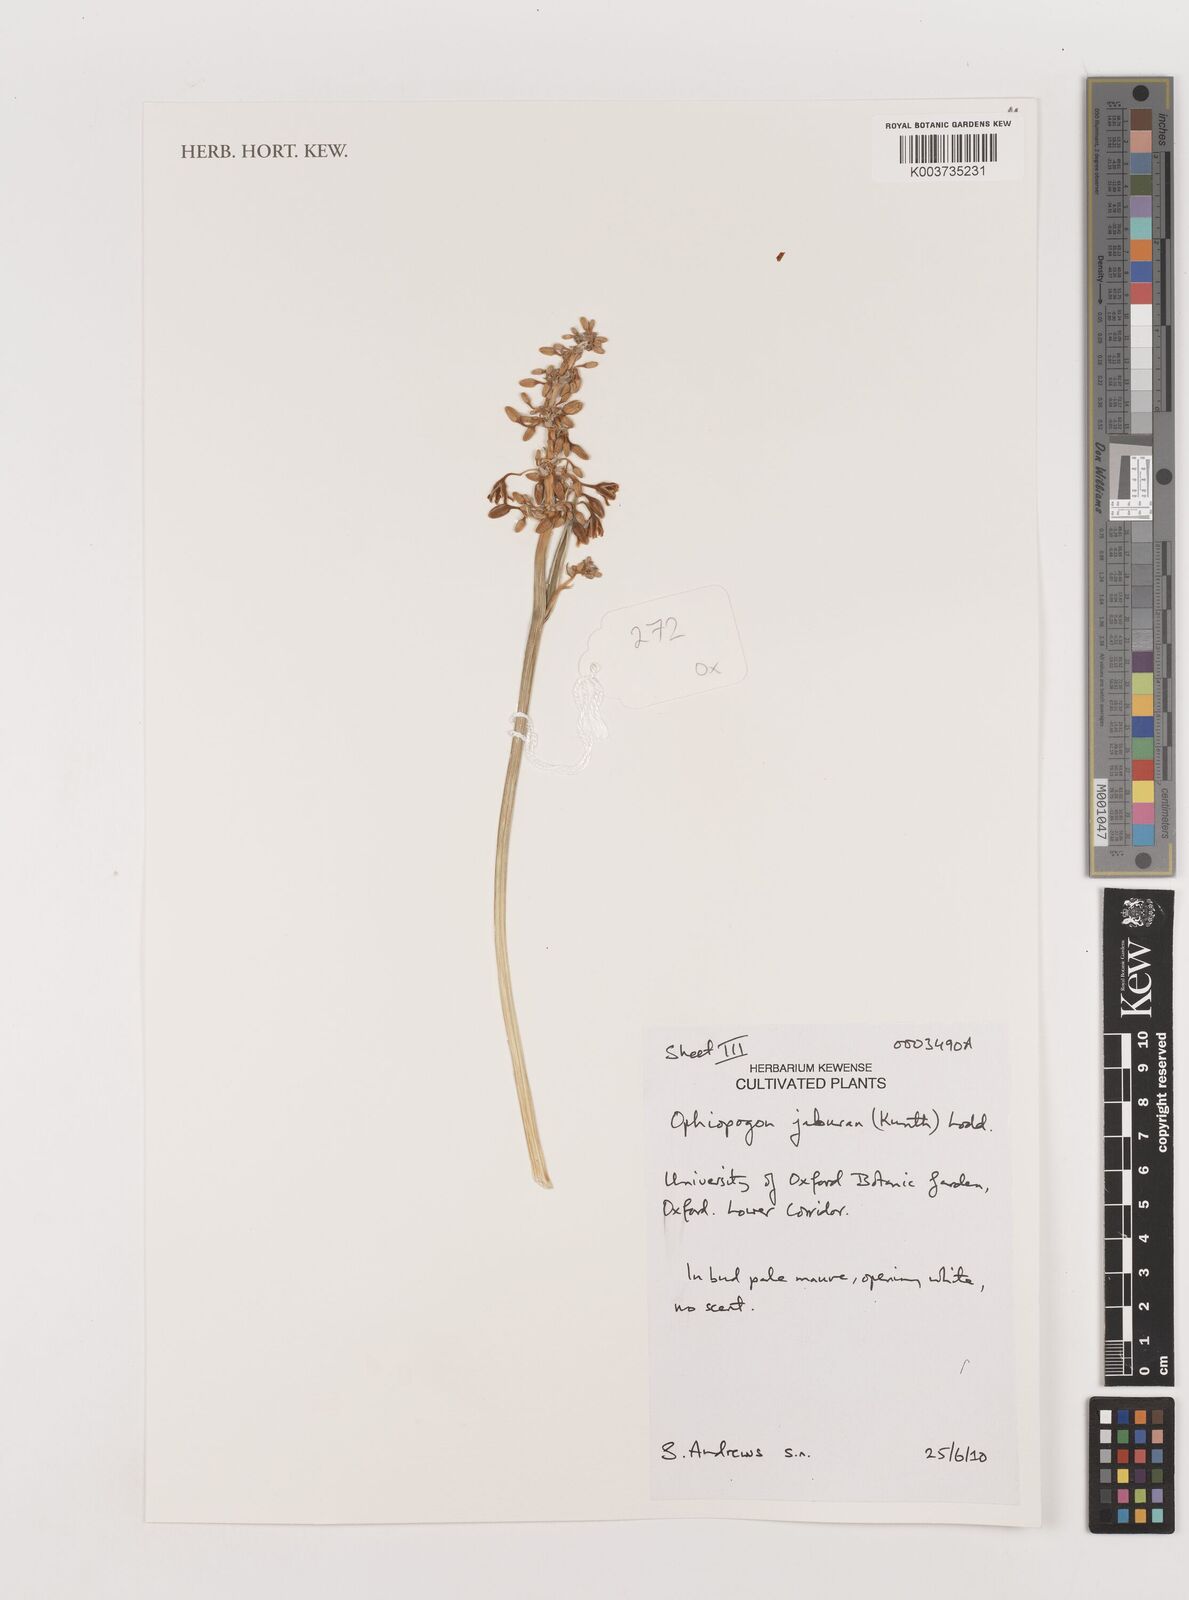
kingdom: Plantae
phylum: Tracheophyta
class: Liliopsida
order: Asparagales
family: Asparagaceae
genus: Ophiopogon
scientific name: Ophiopogon jaburan
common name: Lilyturf
